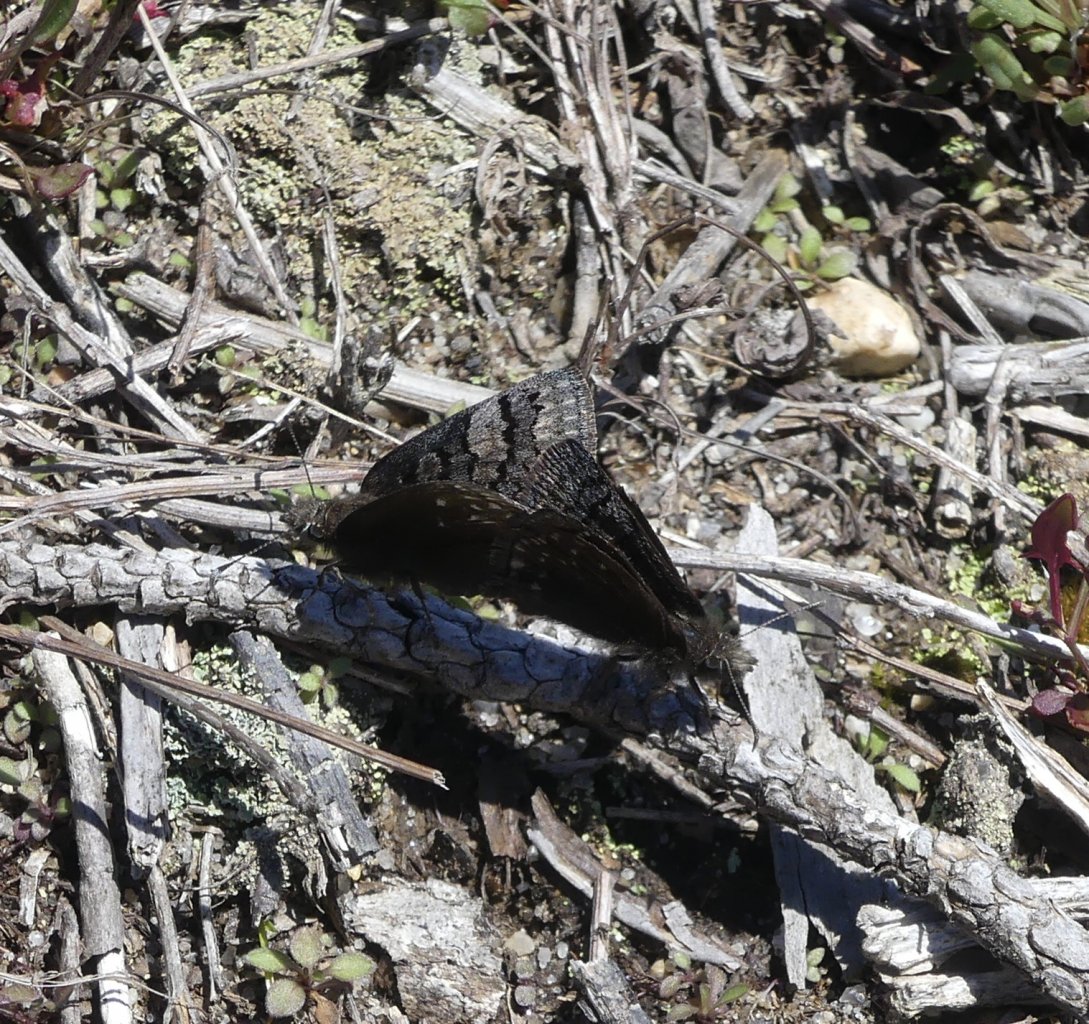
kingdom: Animalia
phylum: Arthropoda
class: Insecta
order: Lepidoptera
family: Hesperiidae
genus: Erynnis
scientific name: Erynnis brizo
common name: Sleepy Duskywing
